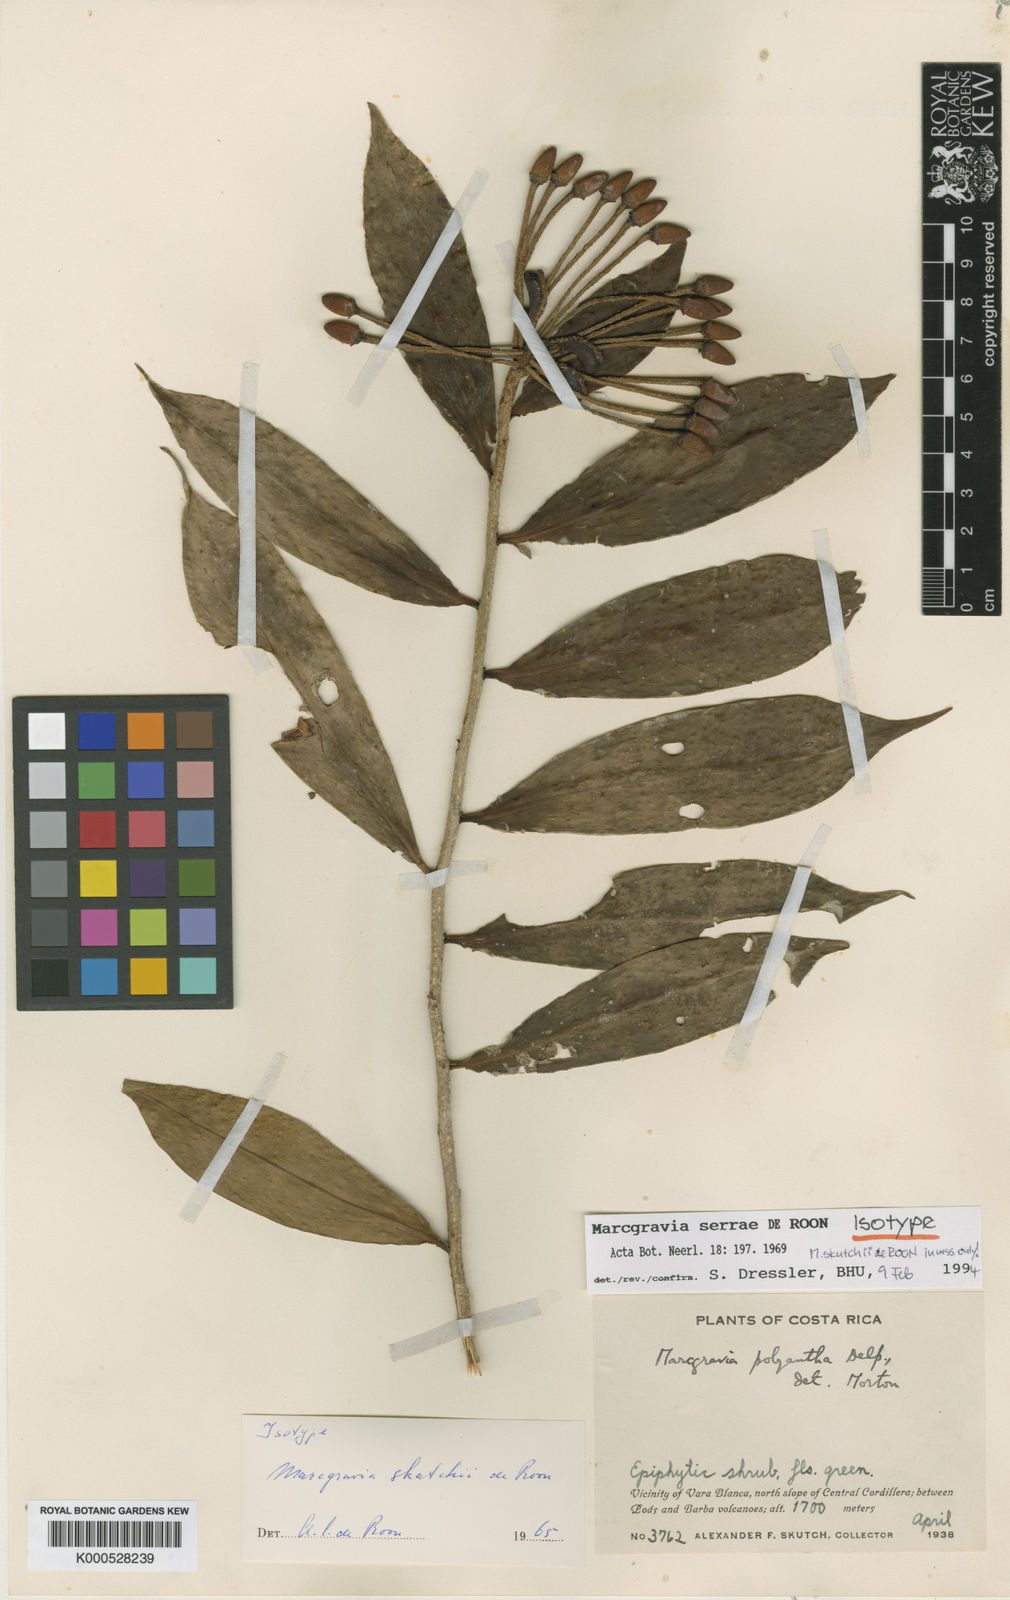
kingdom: Plantae
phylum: Tracheophyta
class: Magnoliopsida
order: Ericales
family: Marcgraviaceae
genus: Marcgravia
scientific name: Marcgravia serrae
